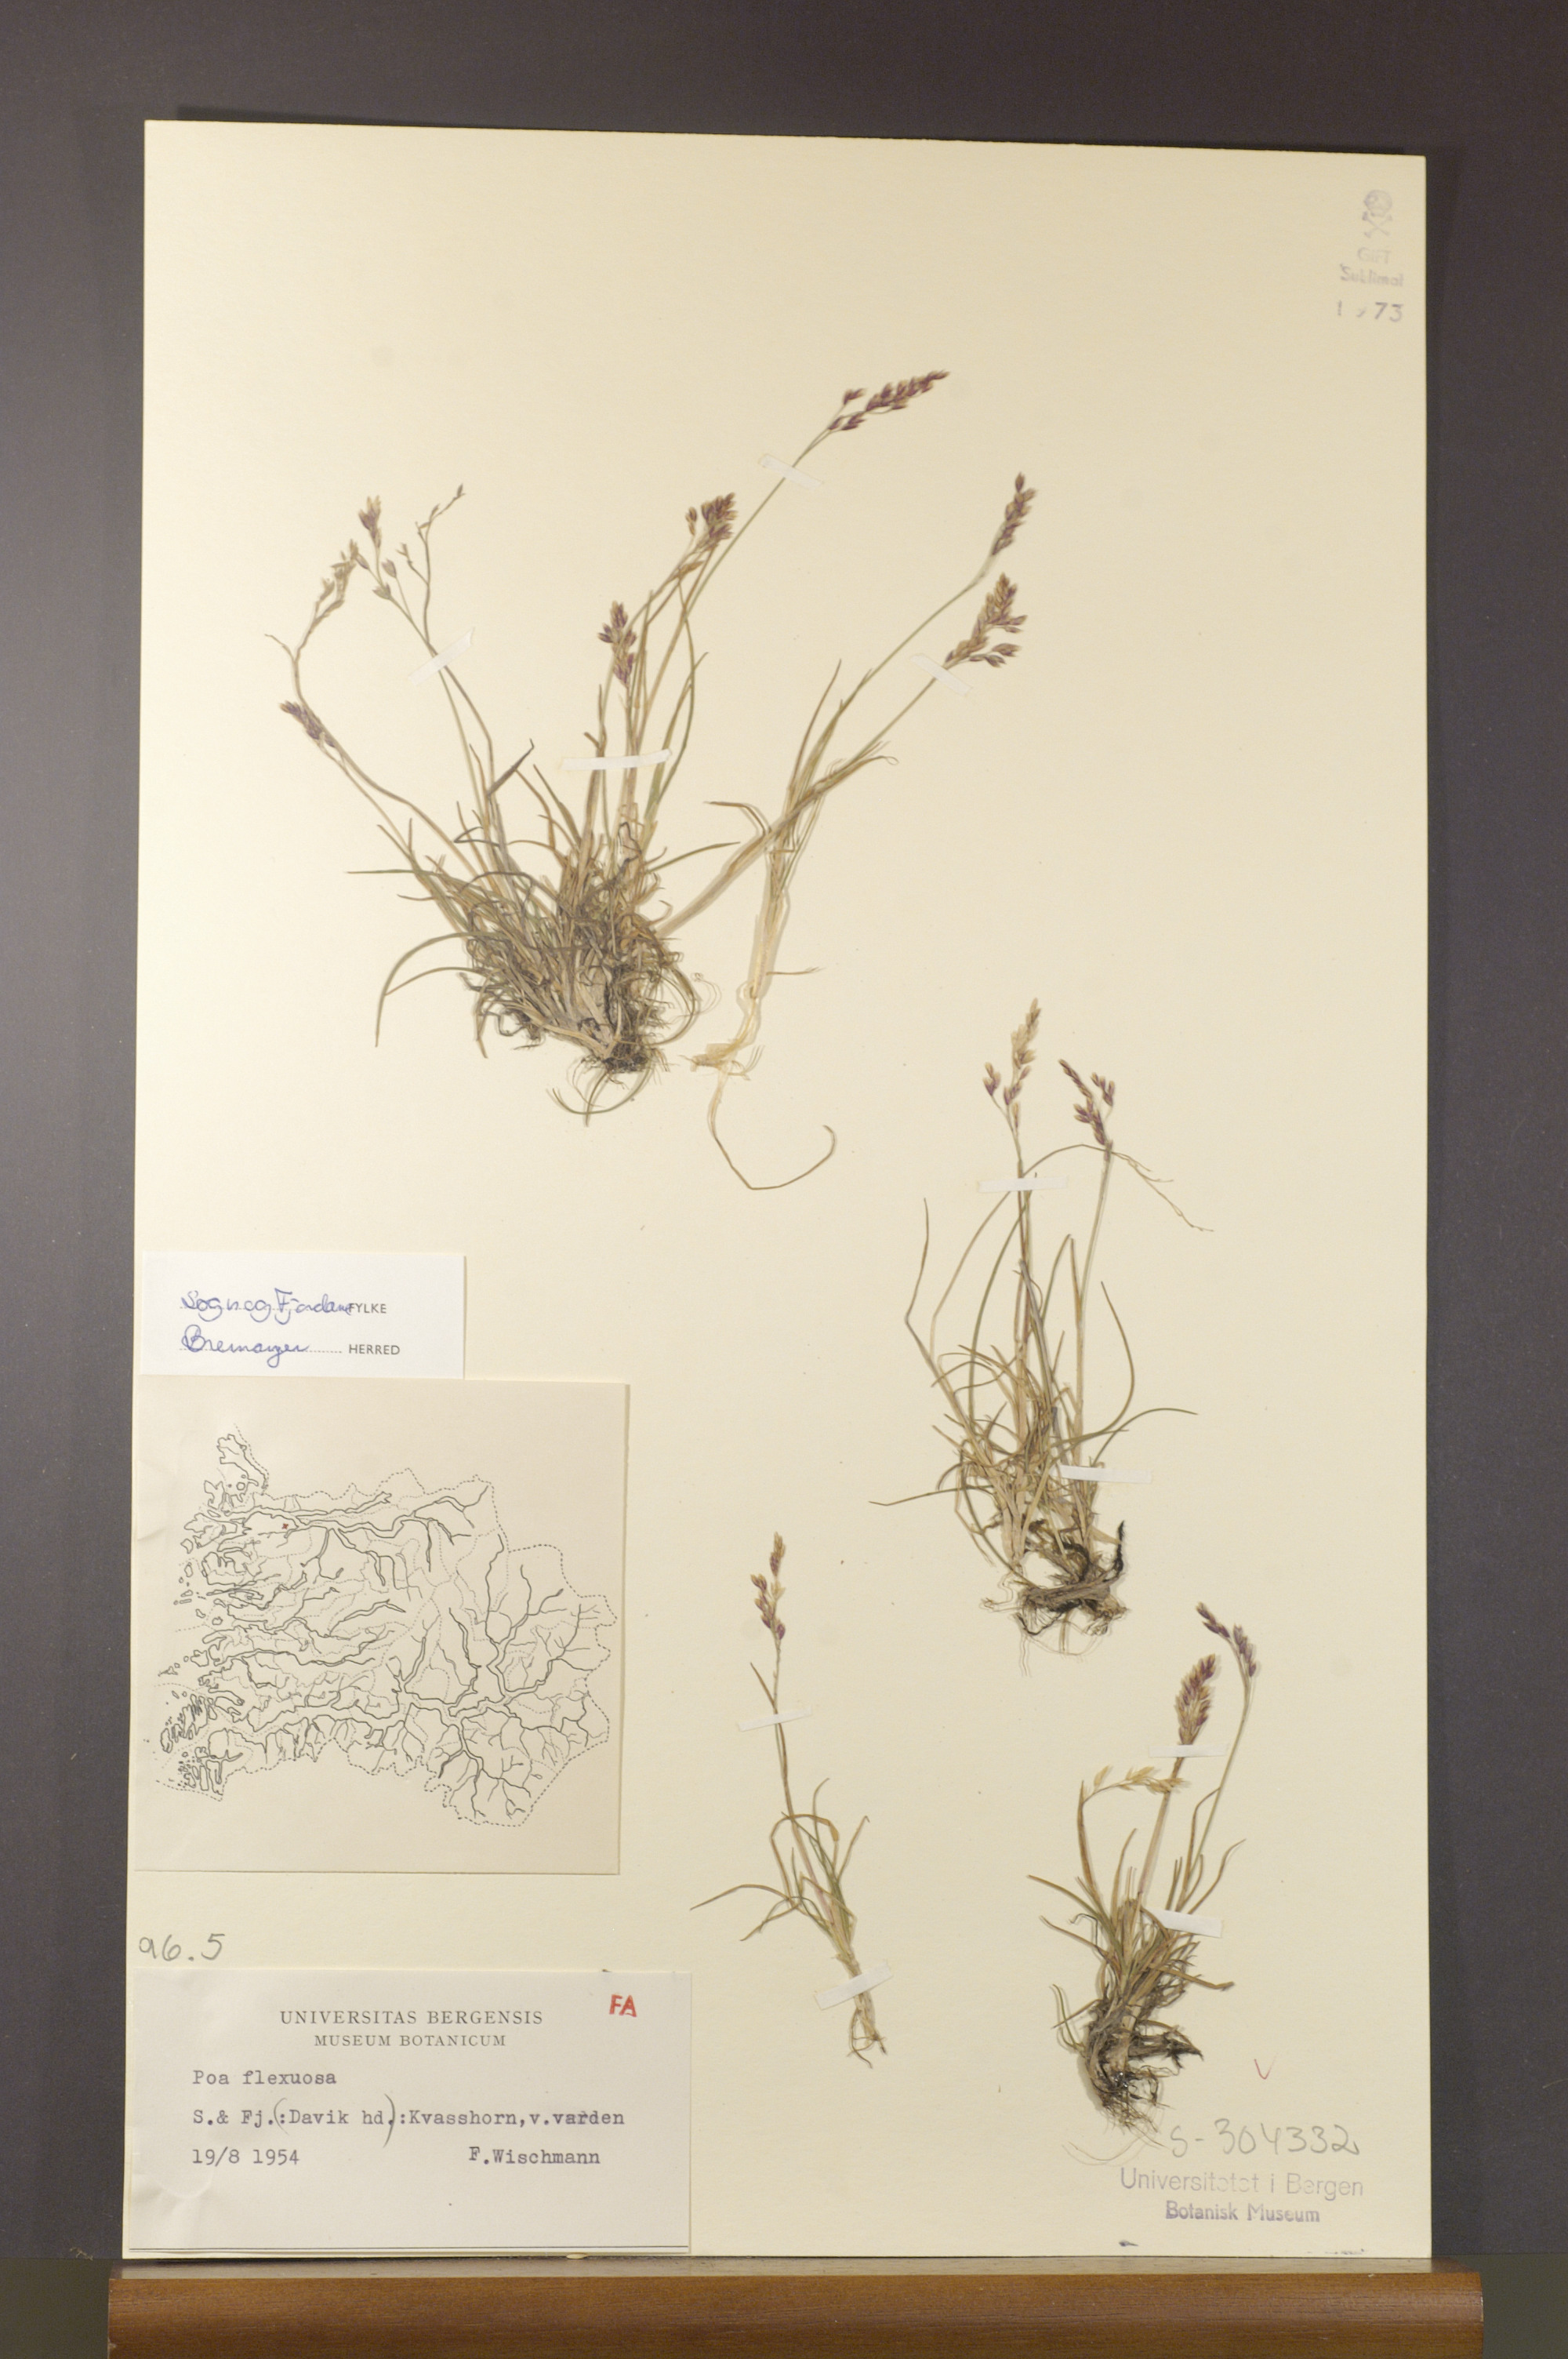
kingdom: Plantae
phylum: Tracheophyta
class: Liliopsida
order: Poales
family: Poaceae
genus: Poa
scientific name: Poa flexuosa
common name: Wavy meadow-grass
